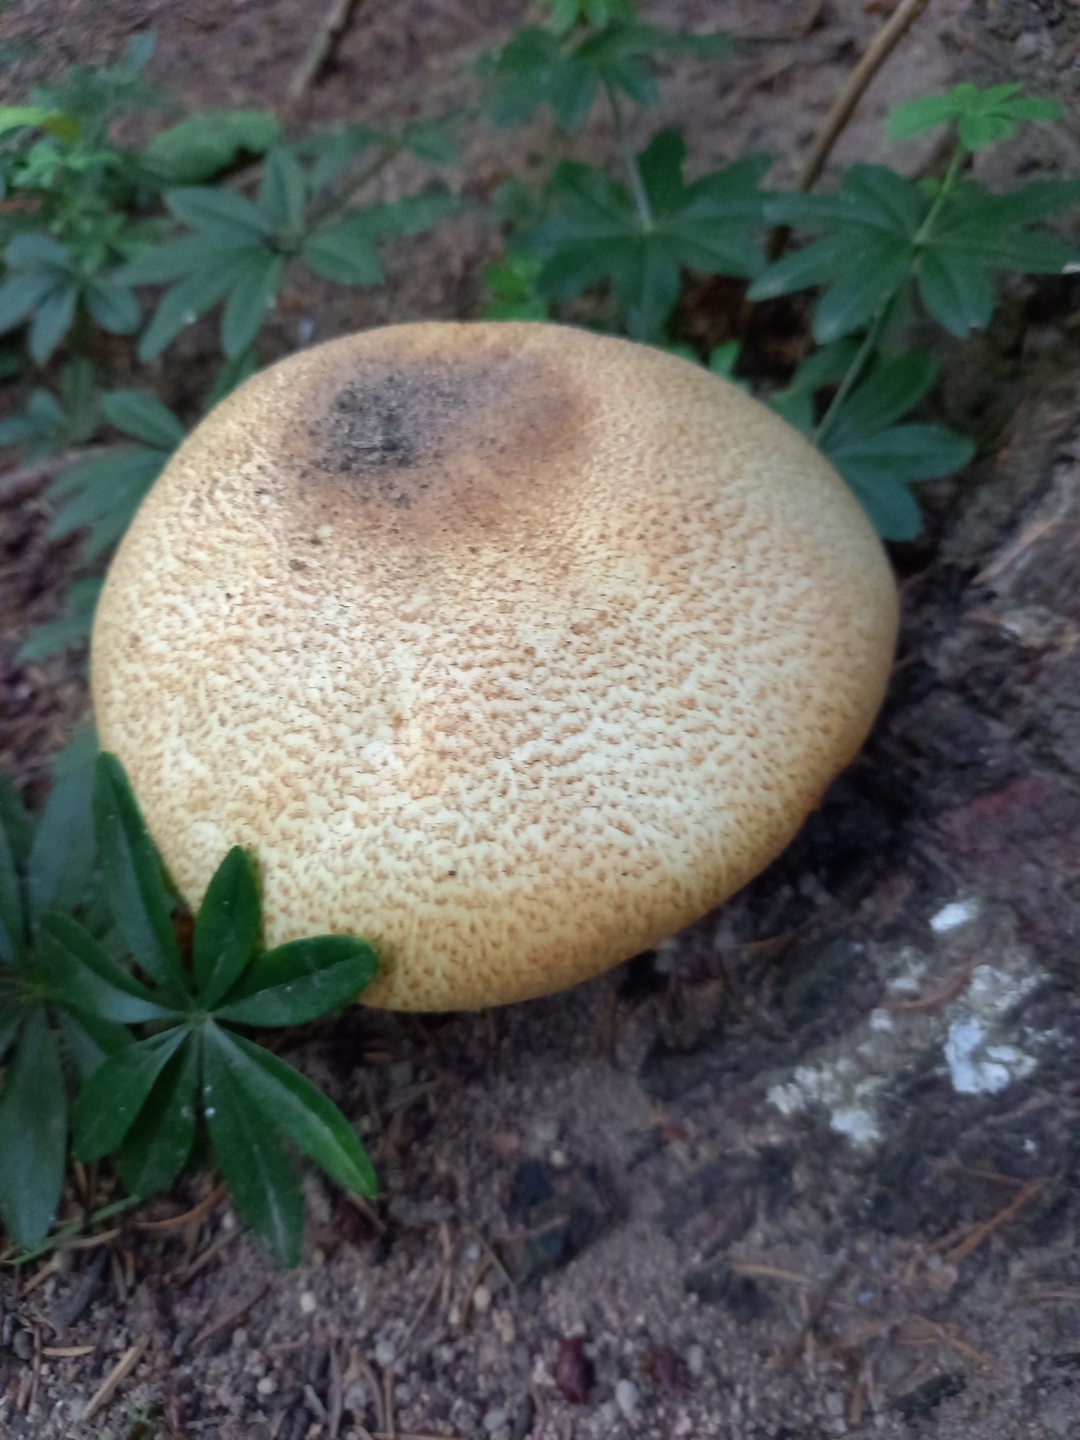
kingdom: Fungi
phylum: Basidiomycota
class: Agaricomycetes
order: Agaricales
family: Agaricaceae
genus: Agaricus
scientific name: Agaricus augustus
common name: prægtig champignon
